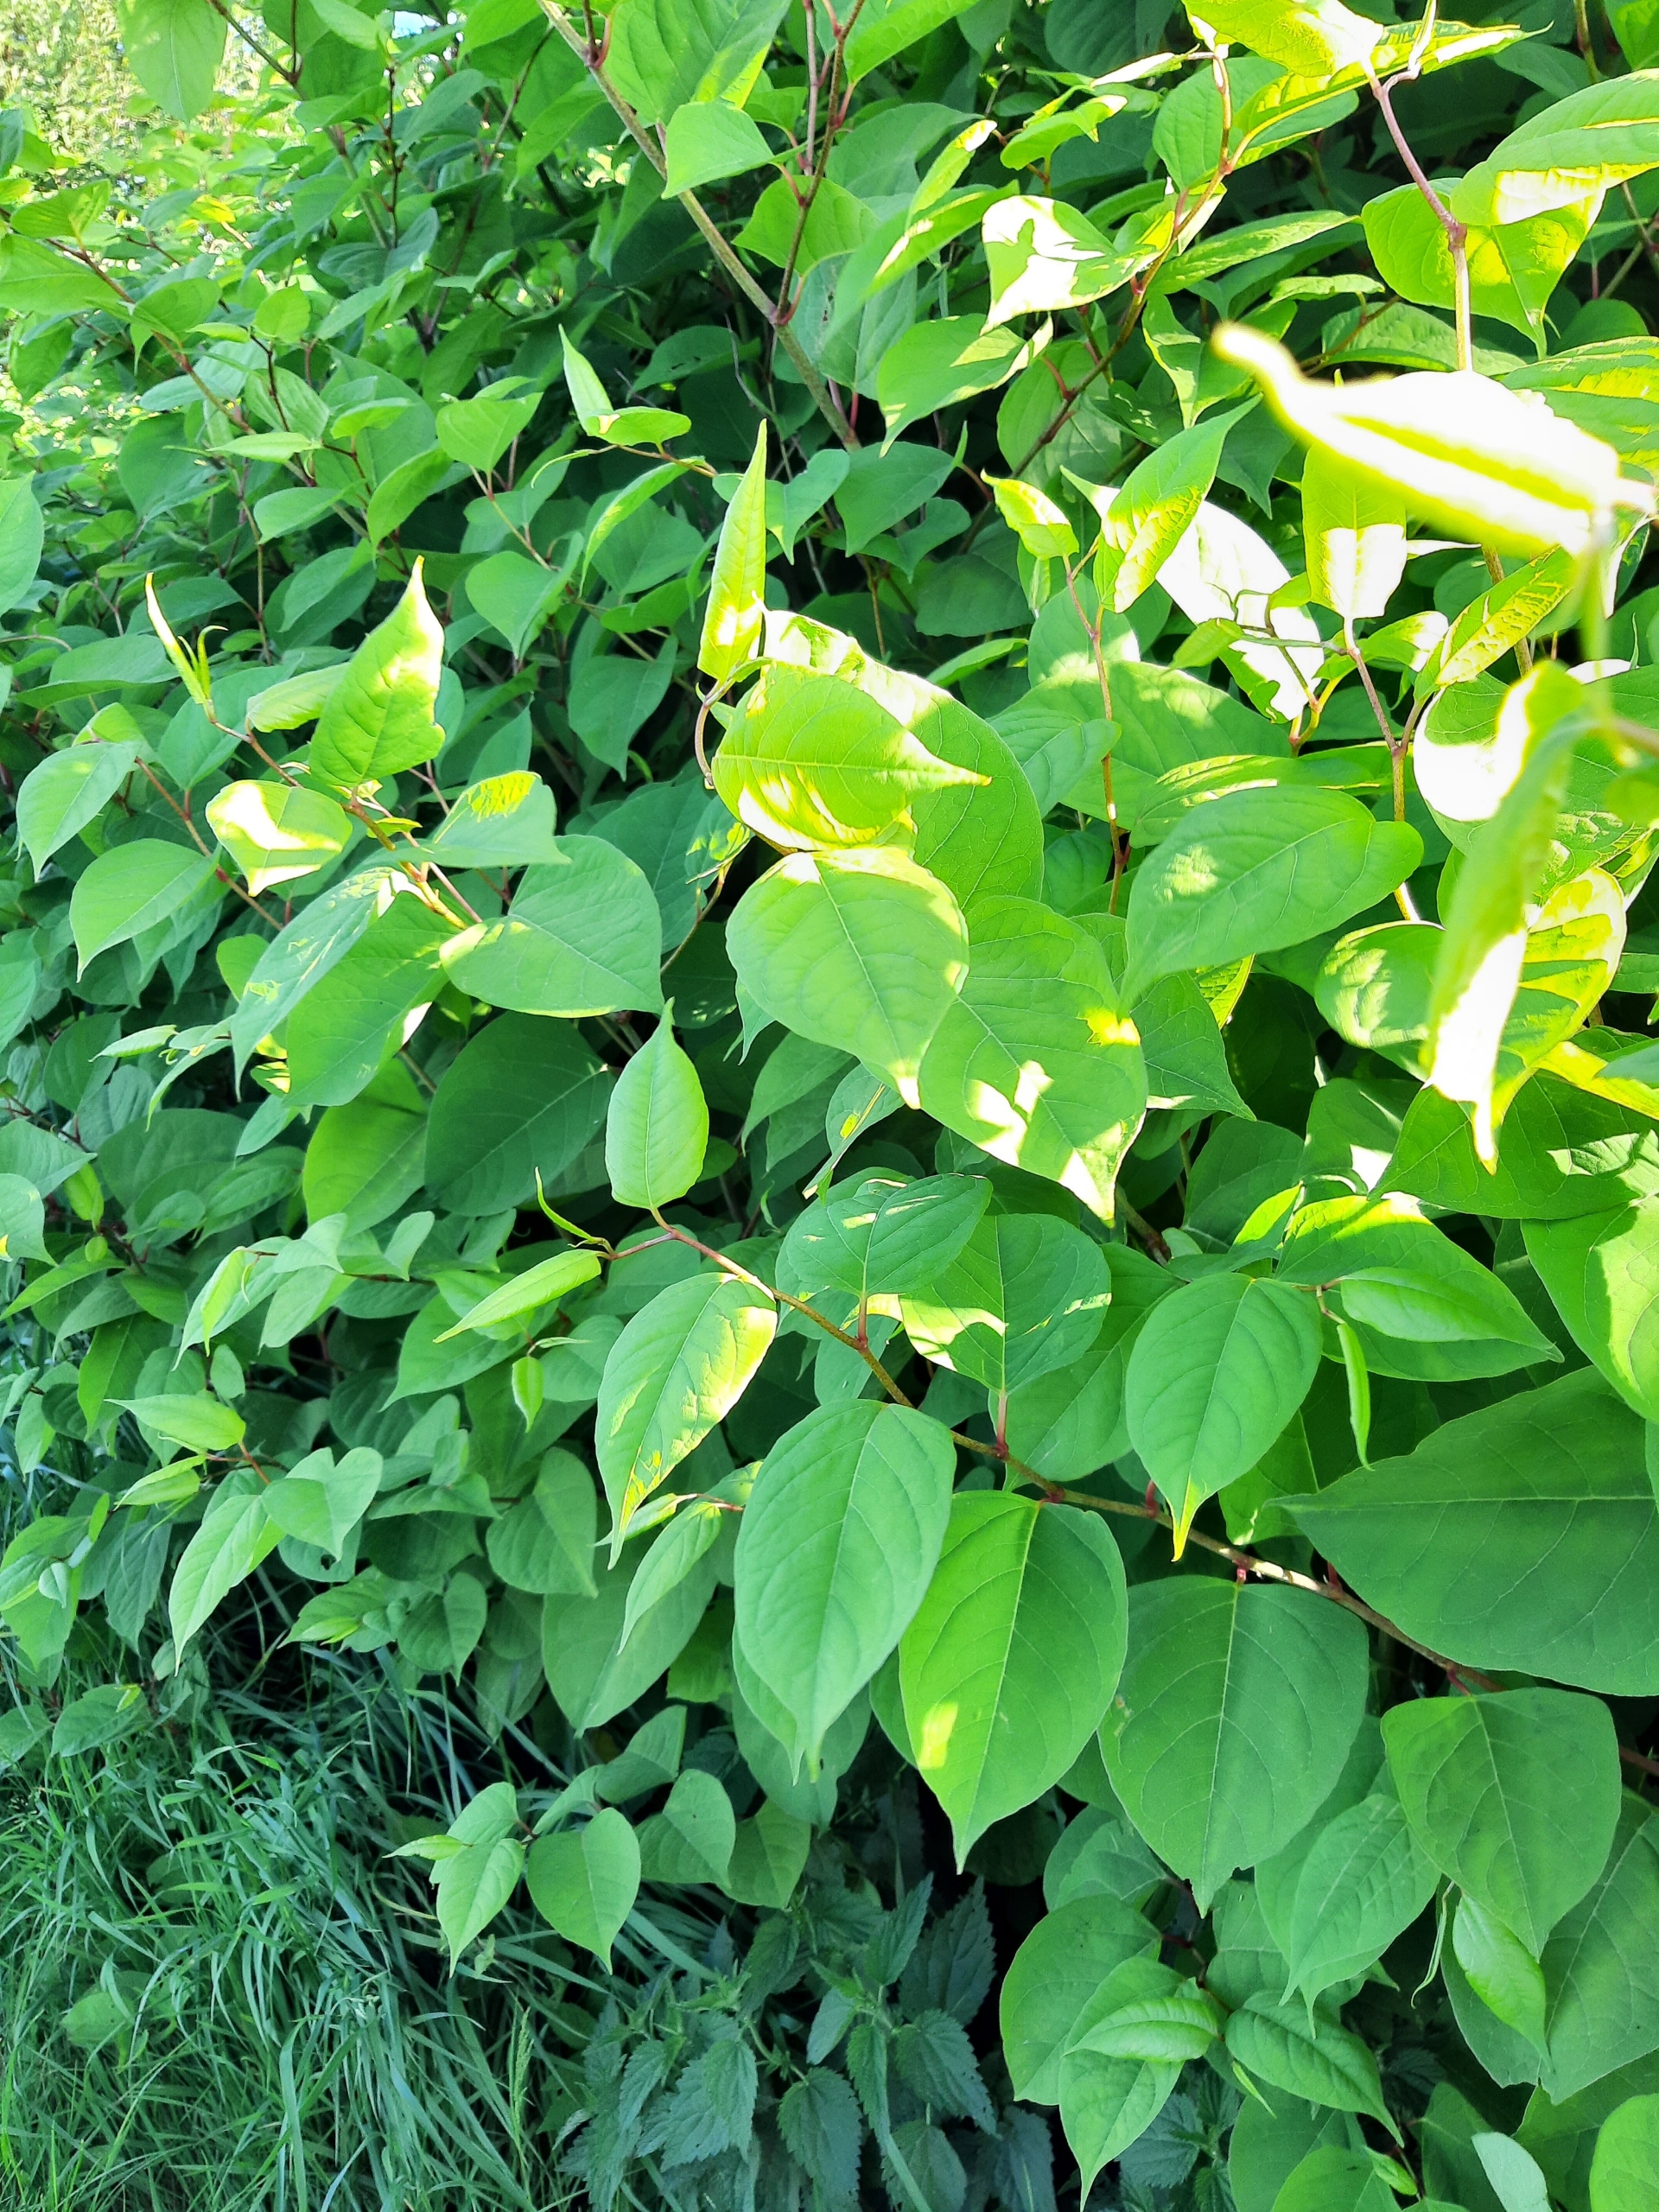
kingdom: Plantae
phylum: Tracheophyta
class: Magnoliopsida
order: Caryophyllales
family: Polygonaceae
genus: Reynoutria
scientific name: Reynoutria japonica
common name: Japan-pileurt
